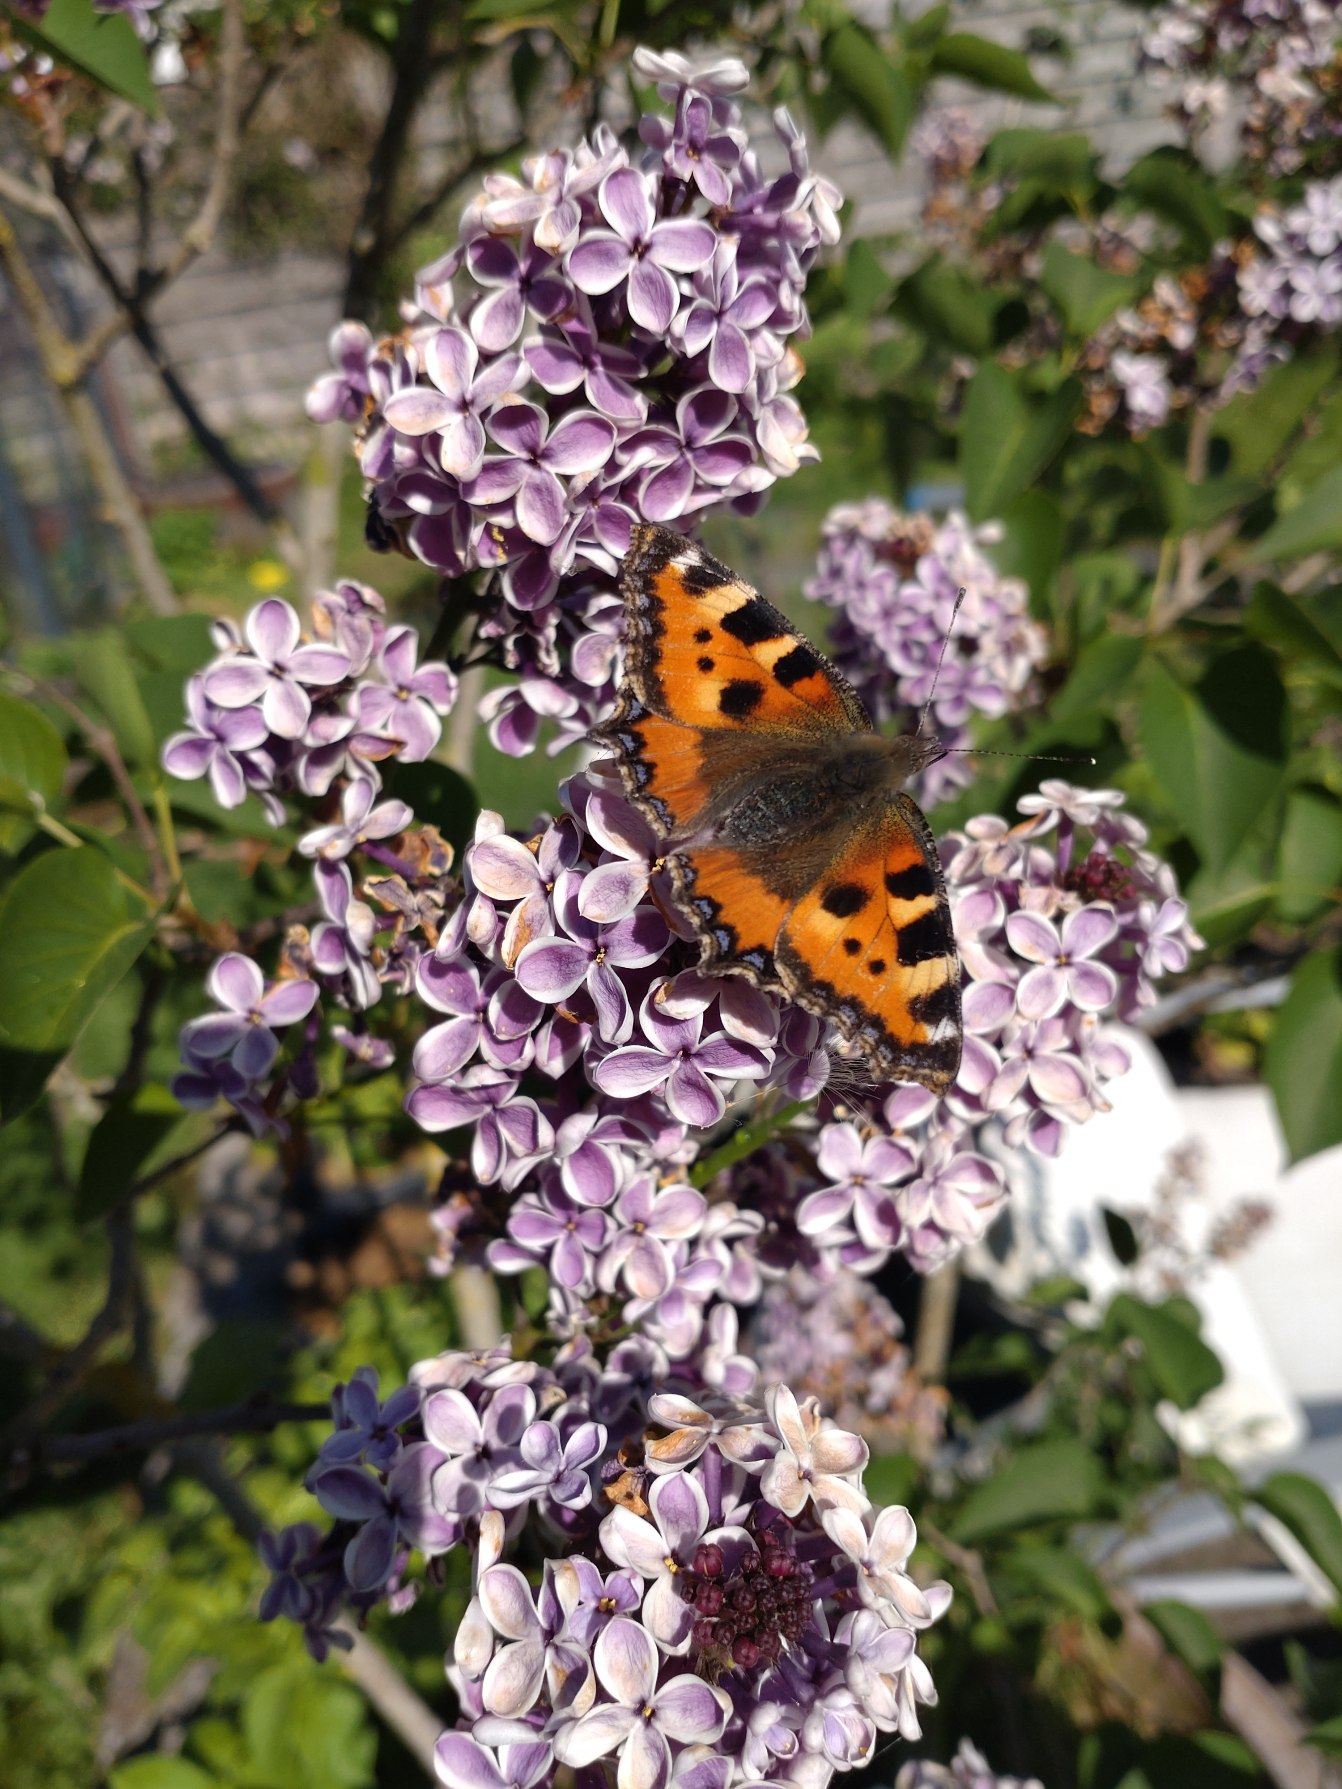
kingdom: Animalia
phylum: Arthropoda
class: Insecta
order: Lepidoptera
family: Nymphalidae
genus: Aglais
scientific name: Aglais urticae
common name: Nældens takvinge
